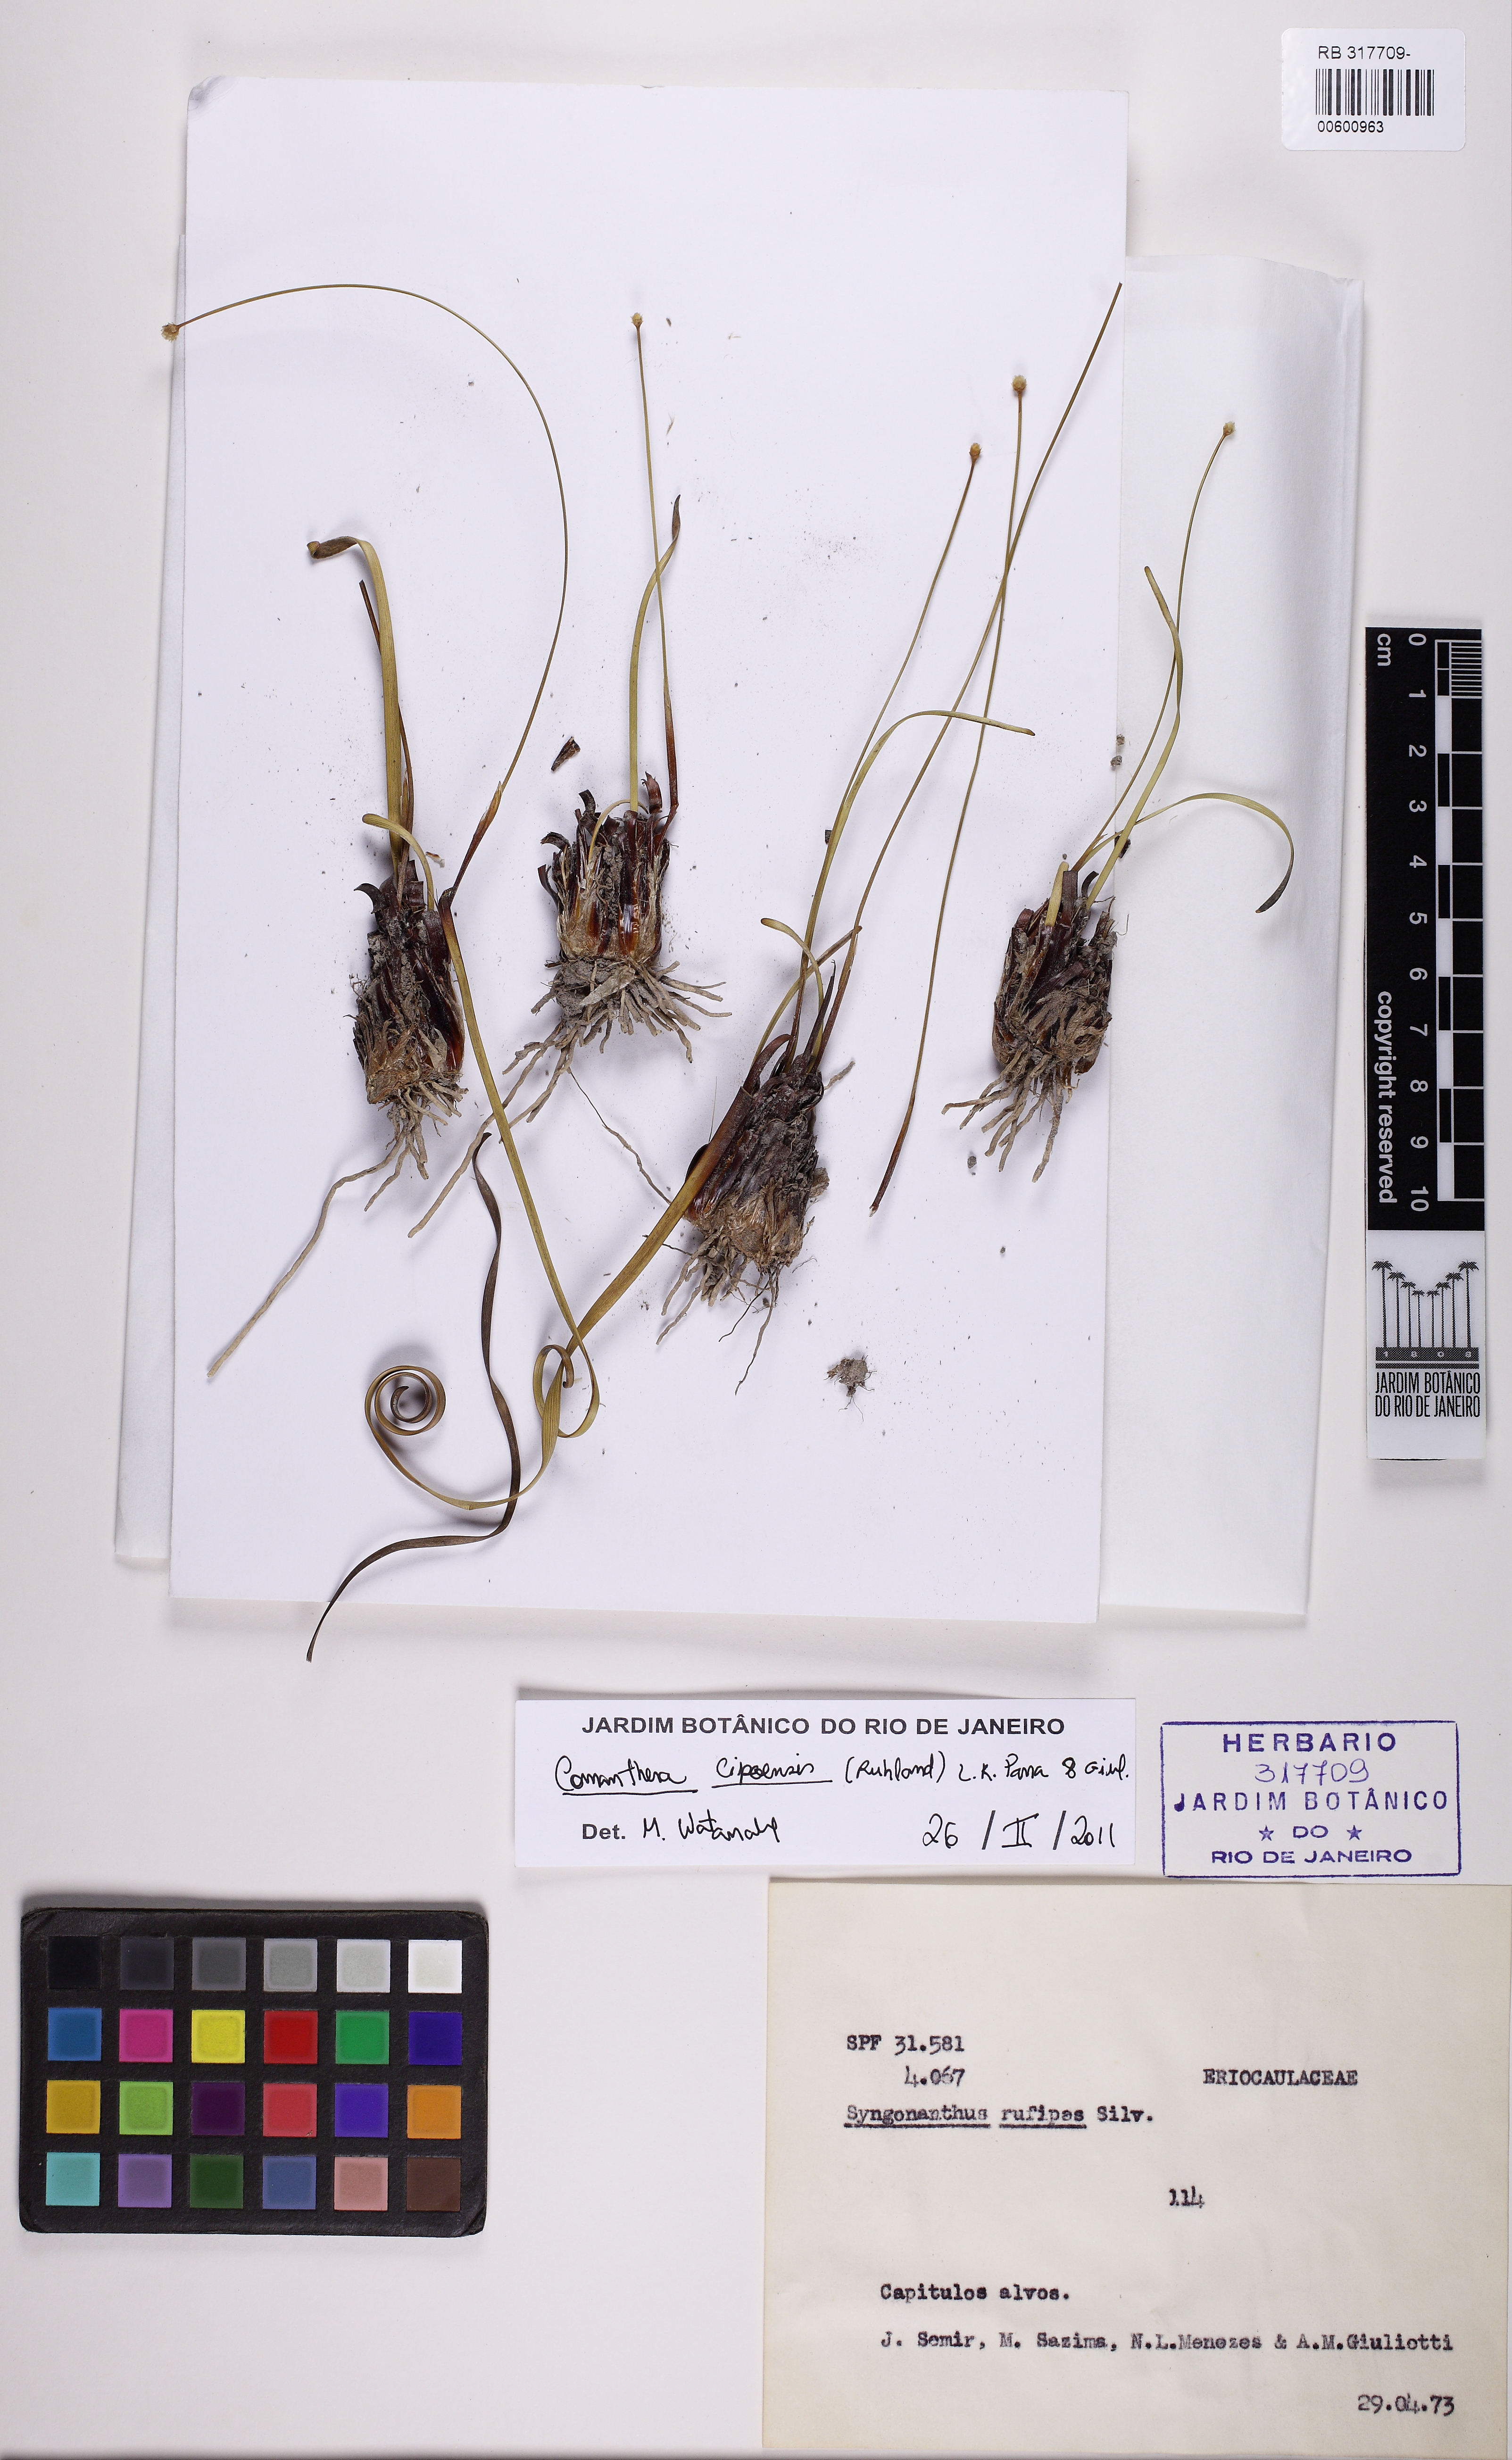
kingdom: Plantae
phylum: Tracheophyta
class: Liliopsida
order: Poales
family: Eriocaulaceae
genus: Comanthera
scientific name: Comanthera cipoensis
